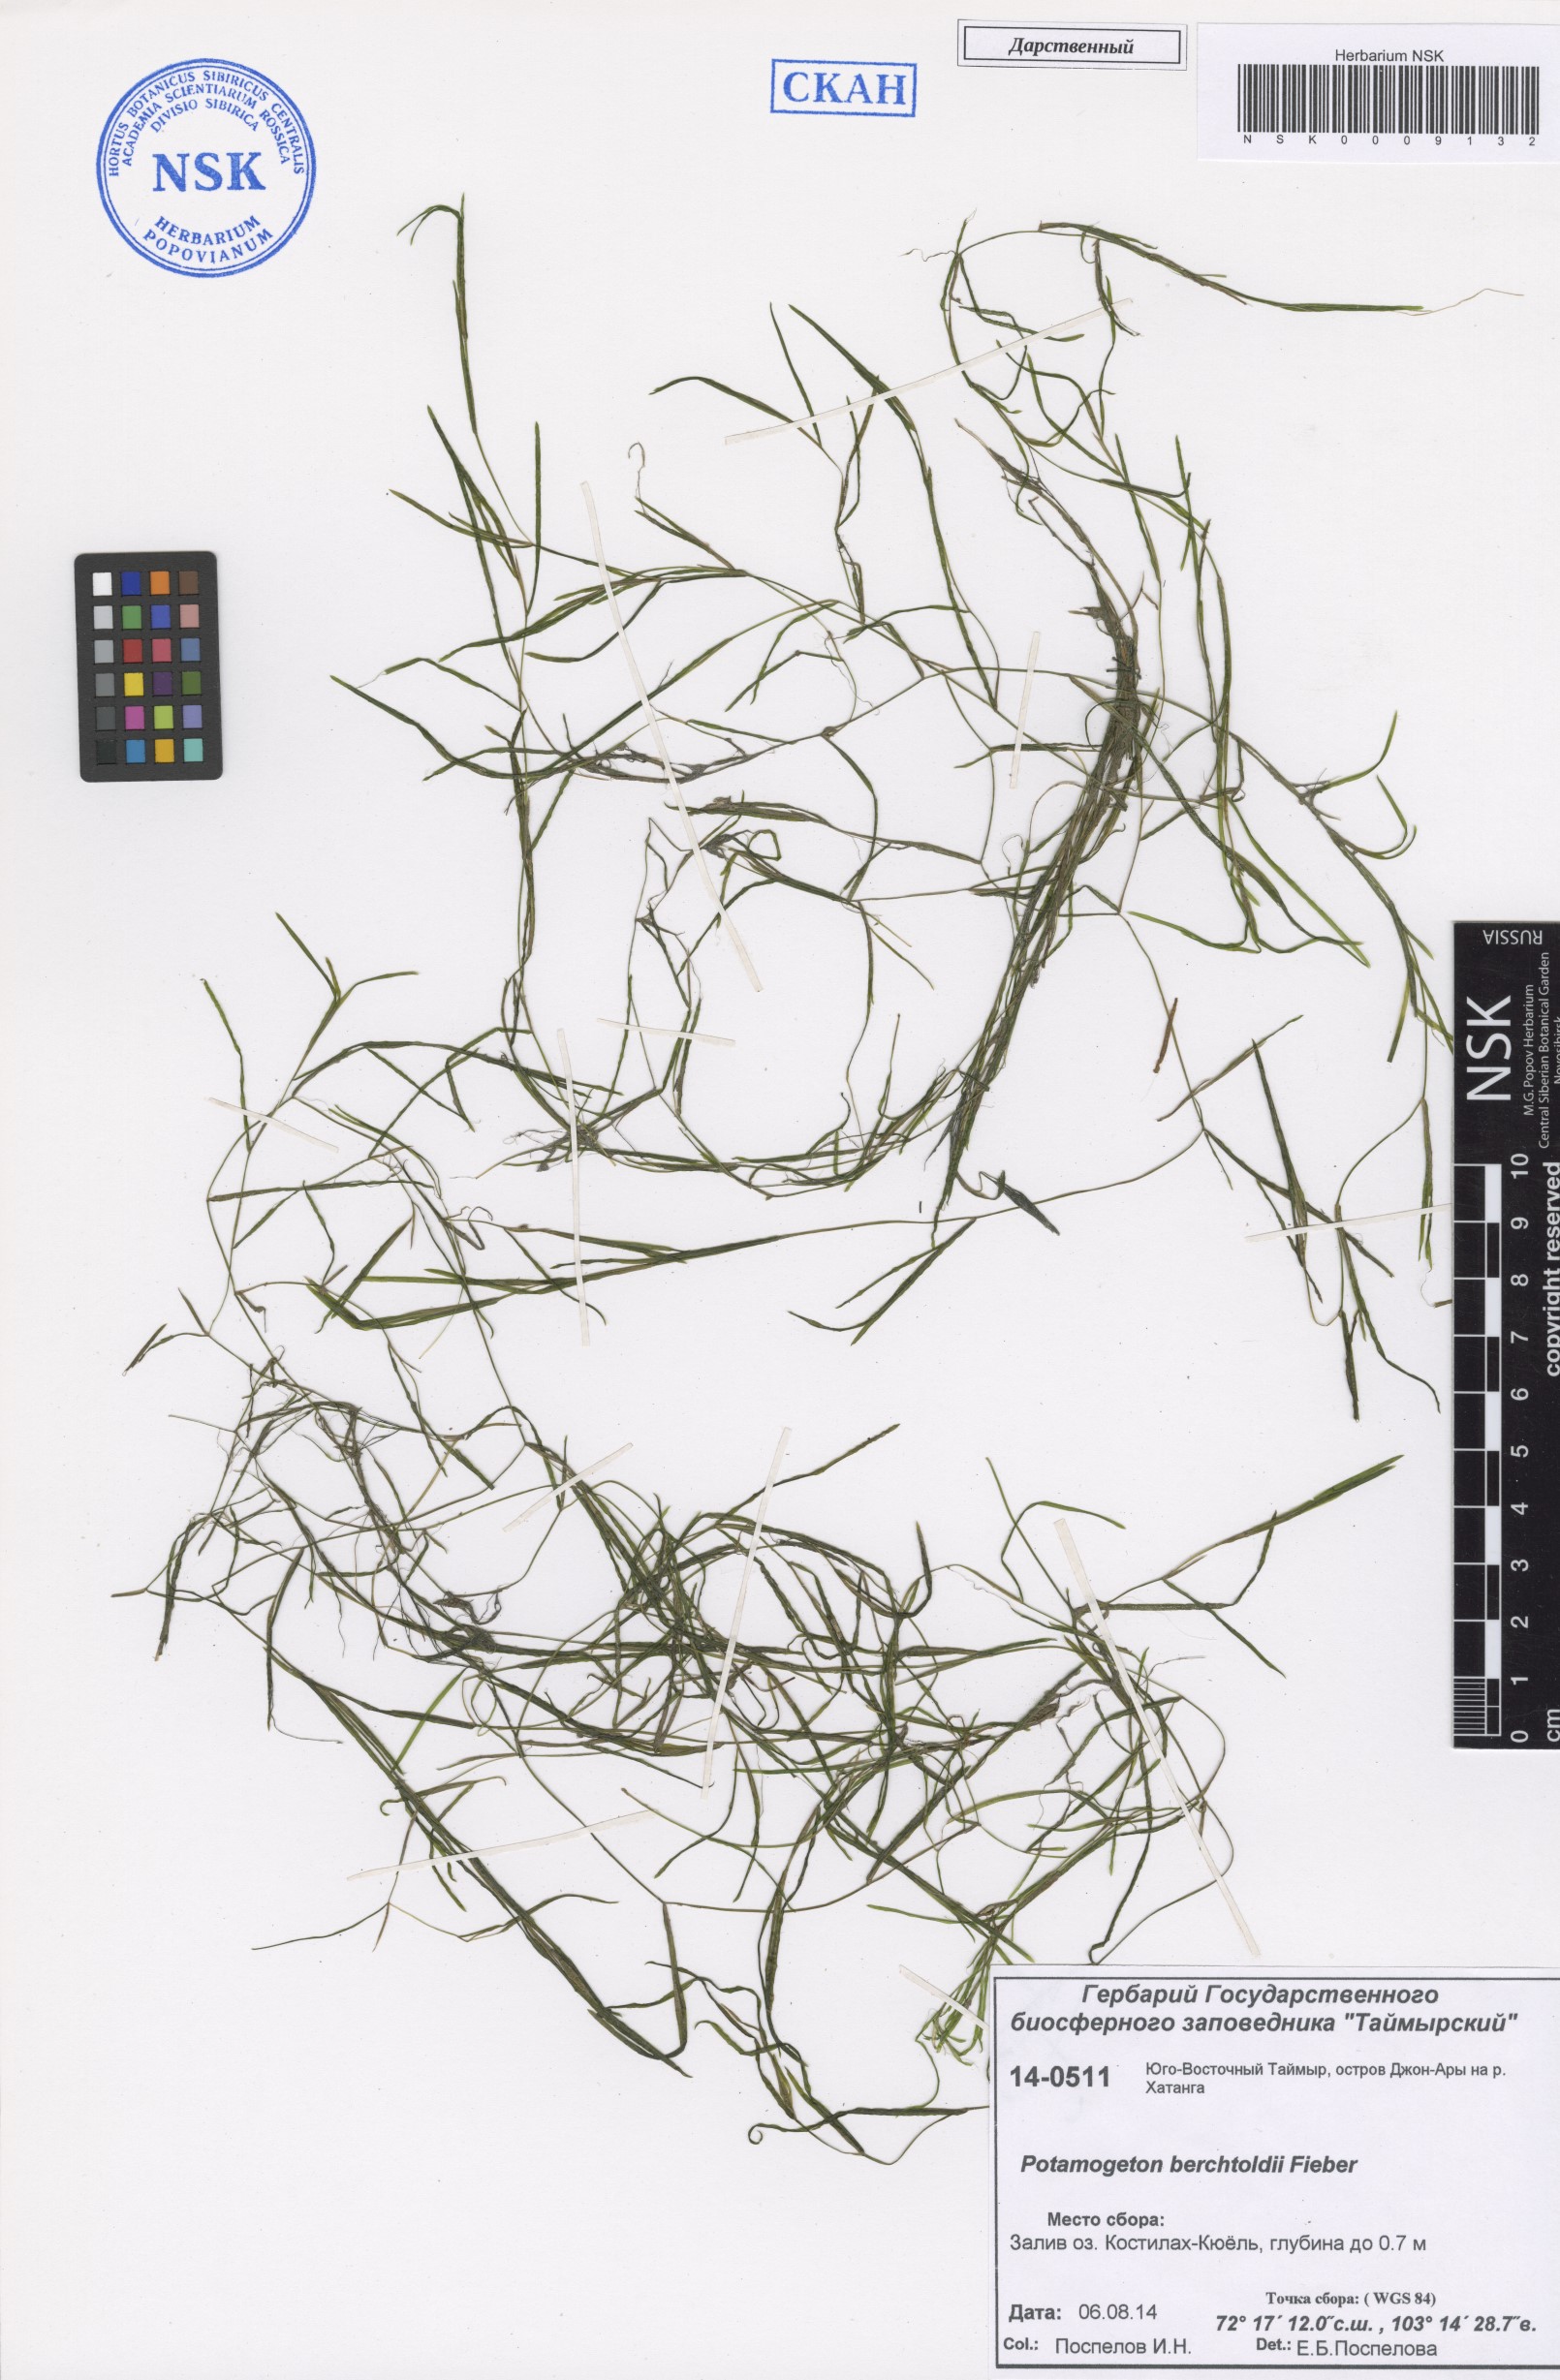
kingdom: Plantae
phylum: Tracheophyta
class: Liliopsida
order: Alismatales
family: Potamogetonaceae
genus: Potamogeton
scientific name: Potamogeton berchtoldii
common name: Small pondweed
